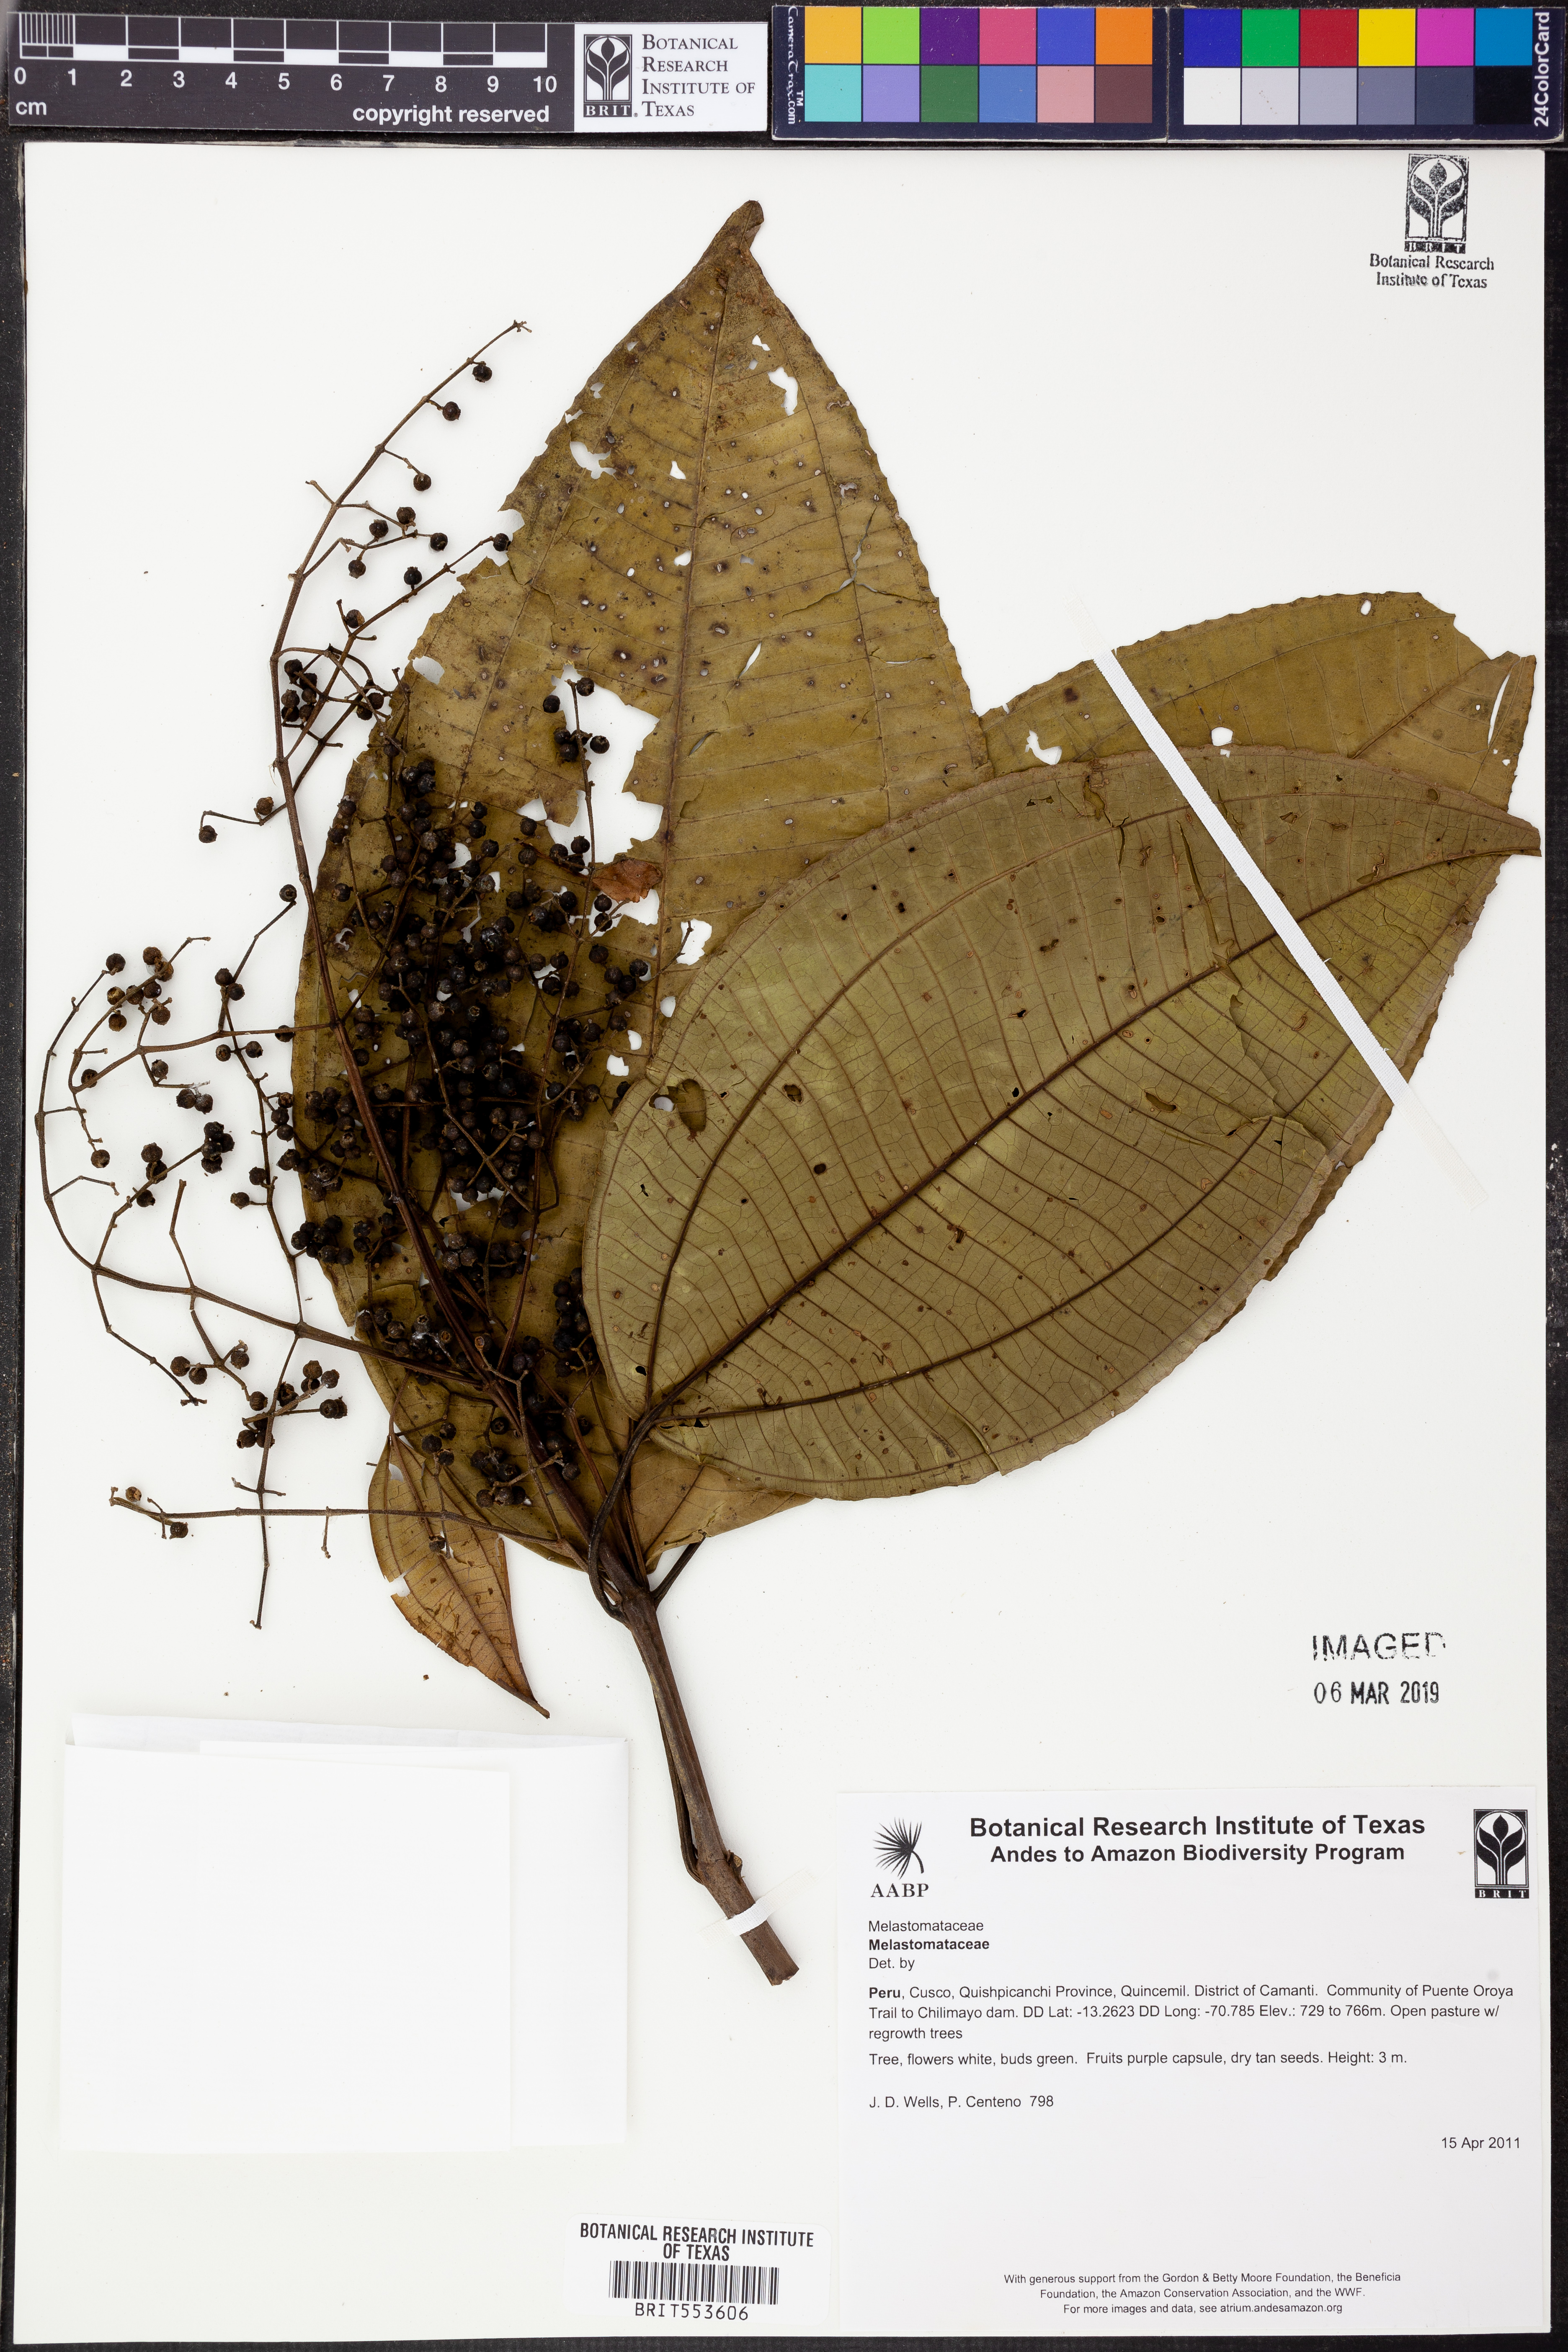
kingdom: Plantae
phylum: Tracheophyta
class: Magnoliopsida
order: Myrtales
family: Melastomataceae
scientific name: Melastomataceae
